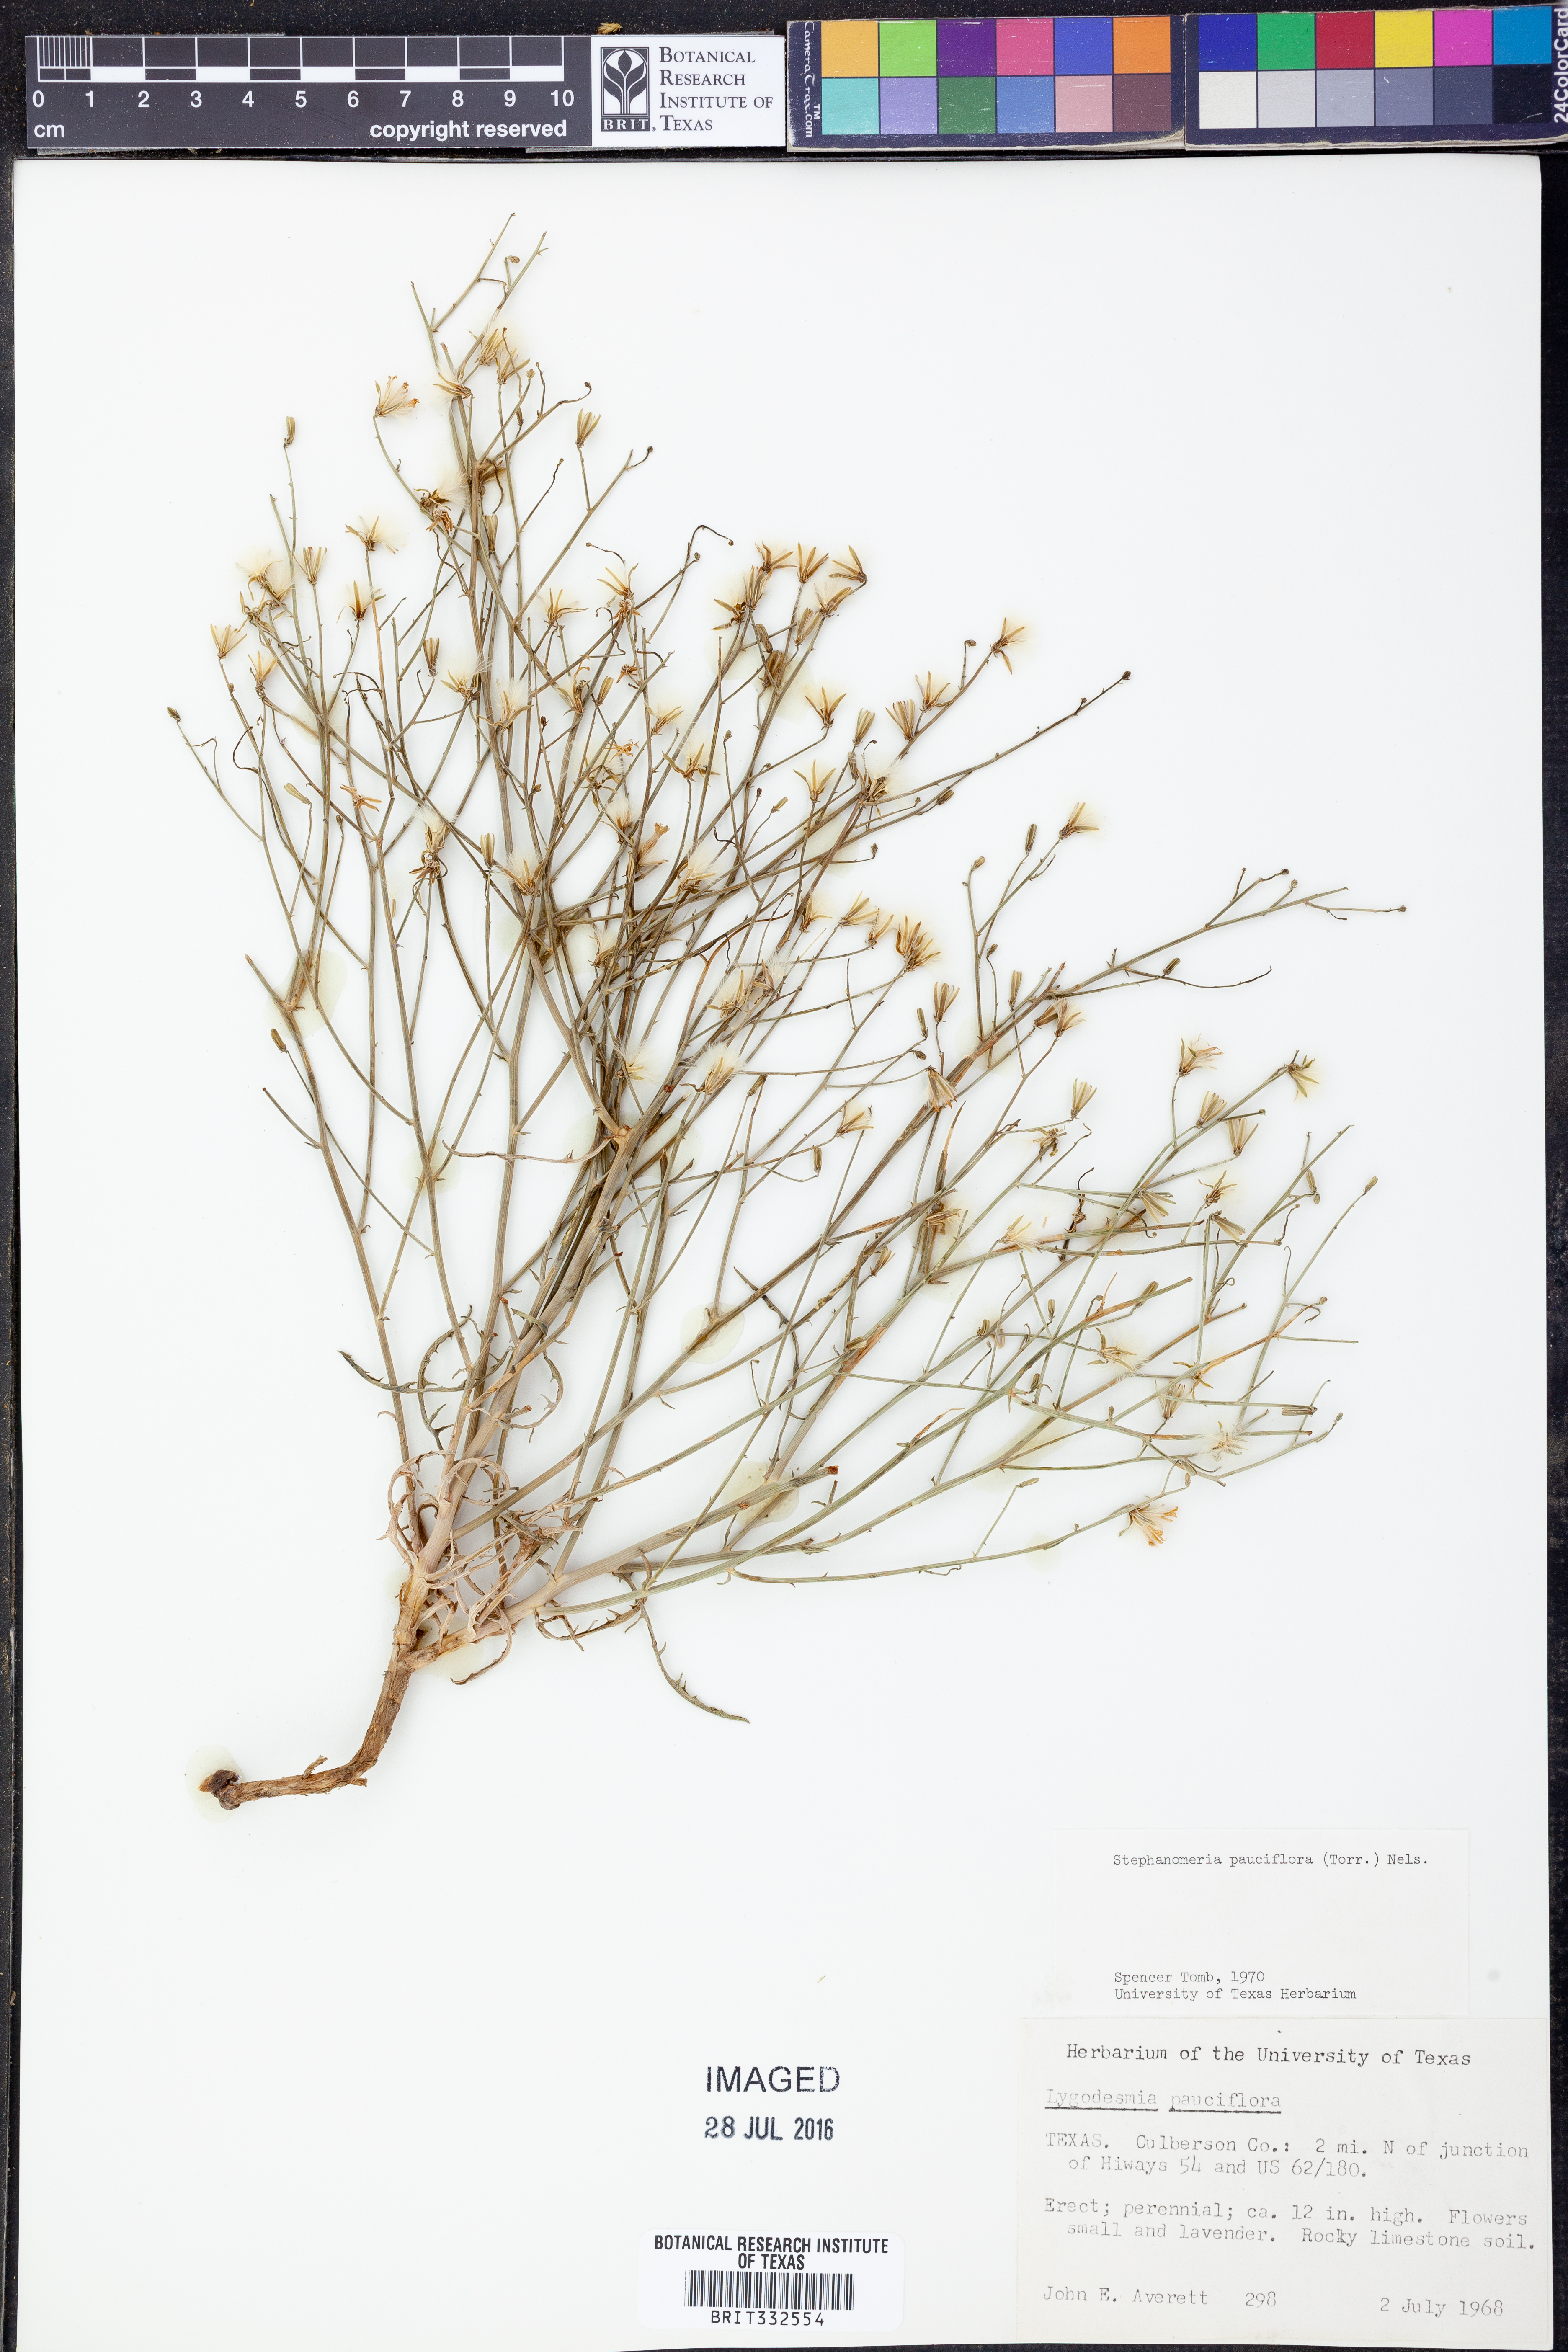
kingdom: Plantae
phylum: Tracheophyta
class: Magnoliopsida
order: Asterales
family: Asteraceae
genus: Stephanomeria
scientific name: Stephanomeria pauciflora
